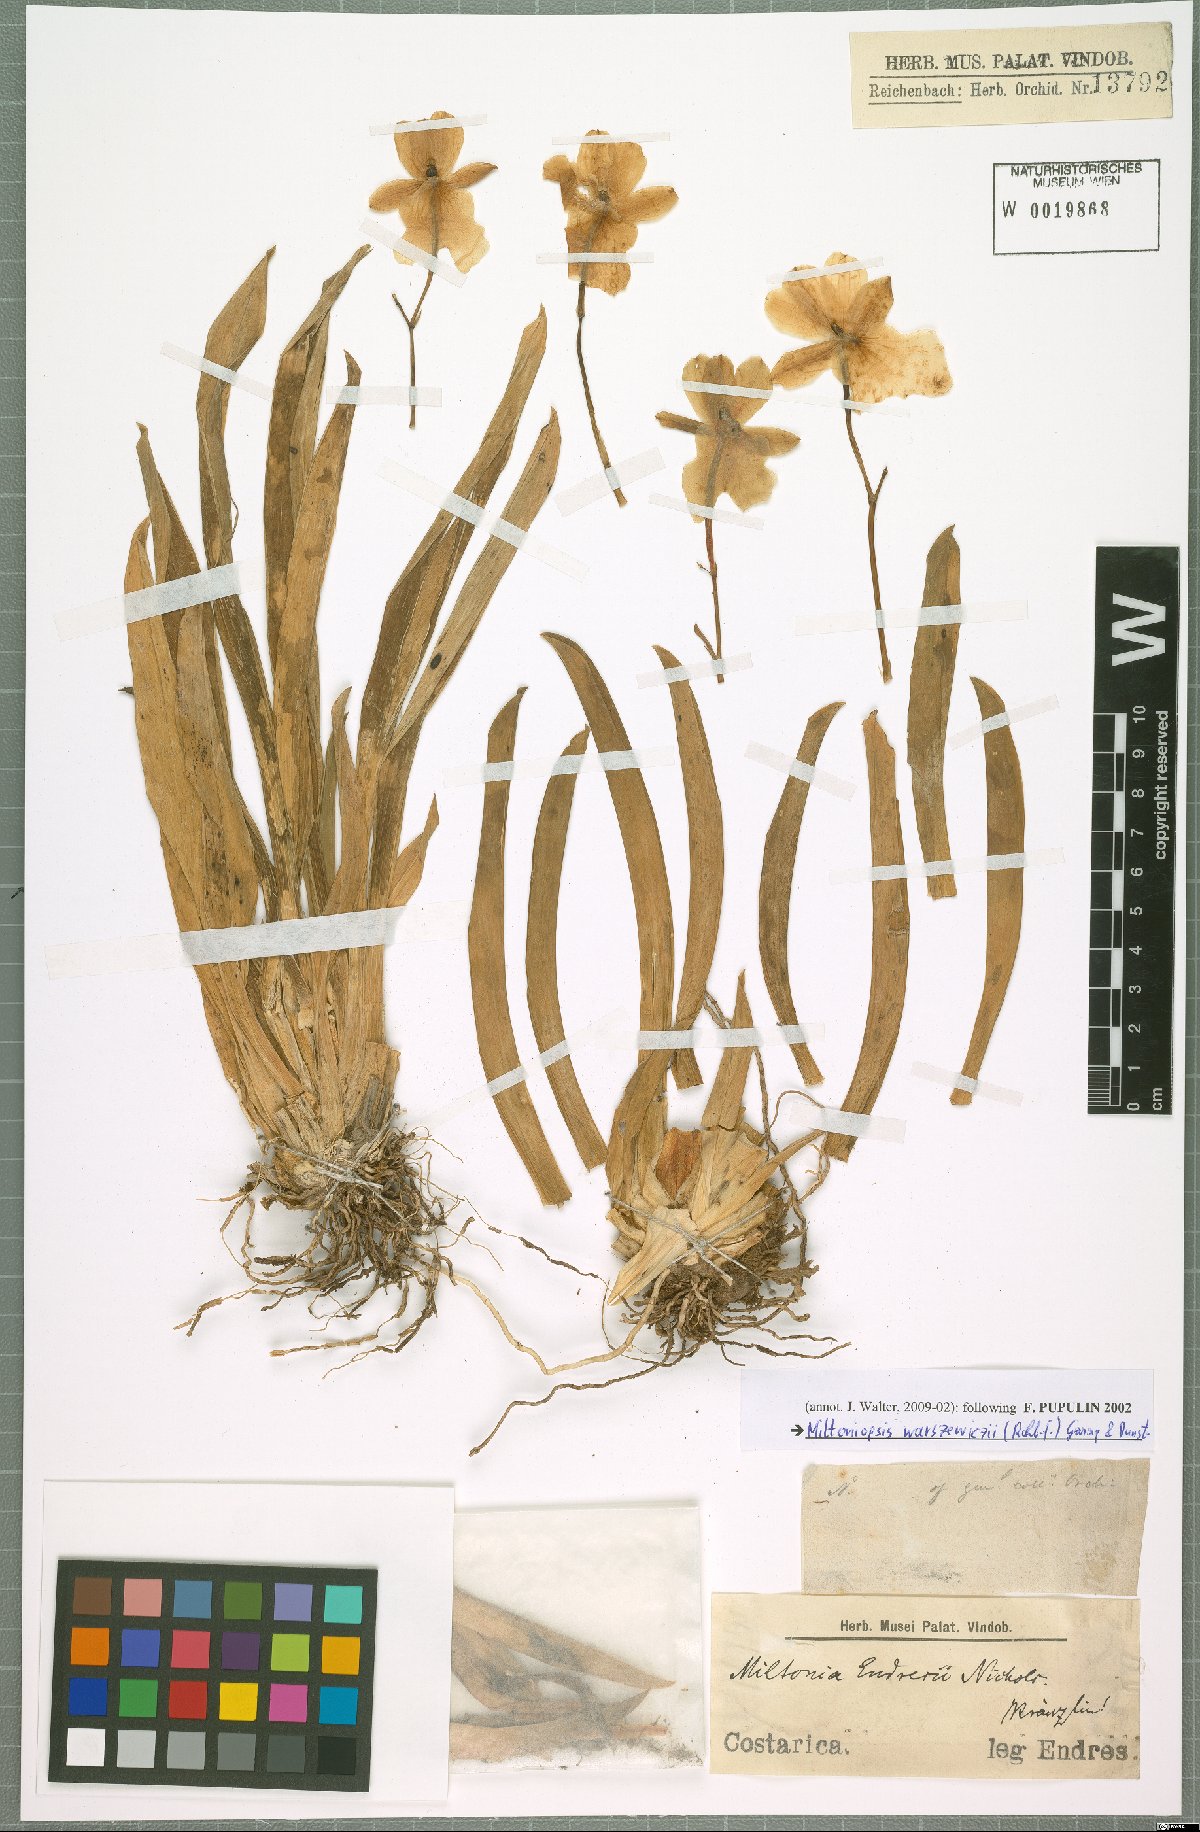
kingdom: Plantae
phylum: Tracheophyta
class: Liliopsida
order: Asparagales
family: Orchidaceae
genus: Miltoniopsis
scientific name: Miltoniopsis warszewiczii
